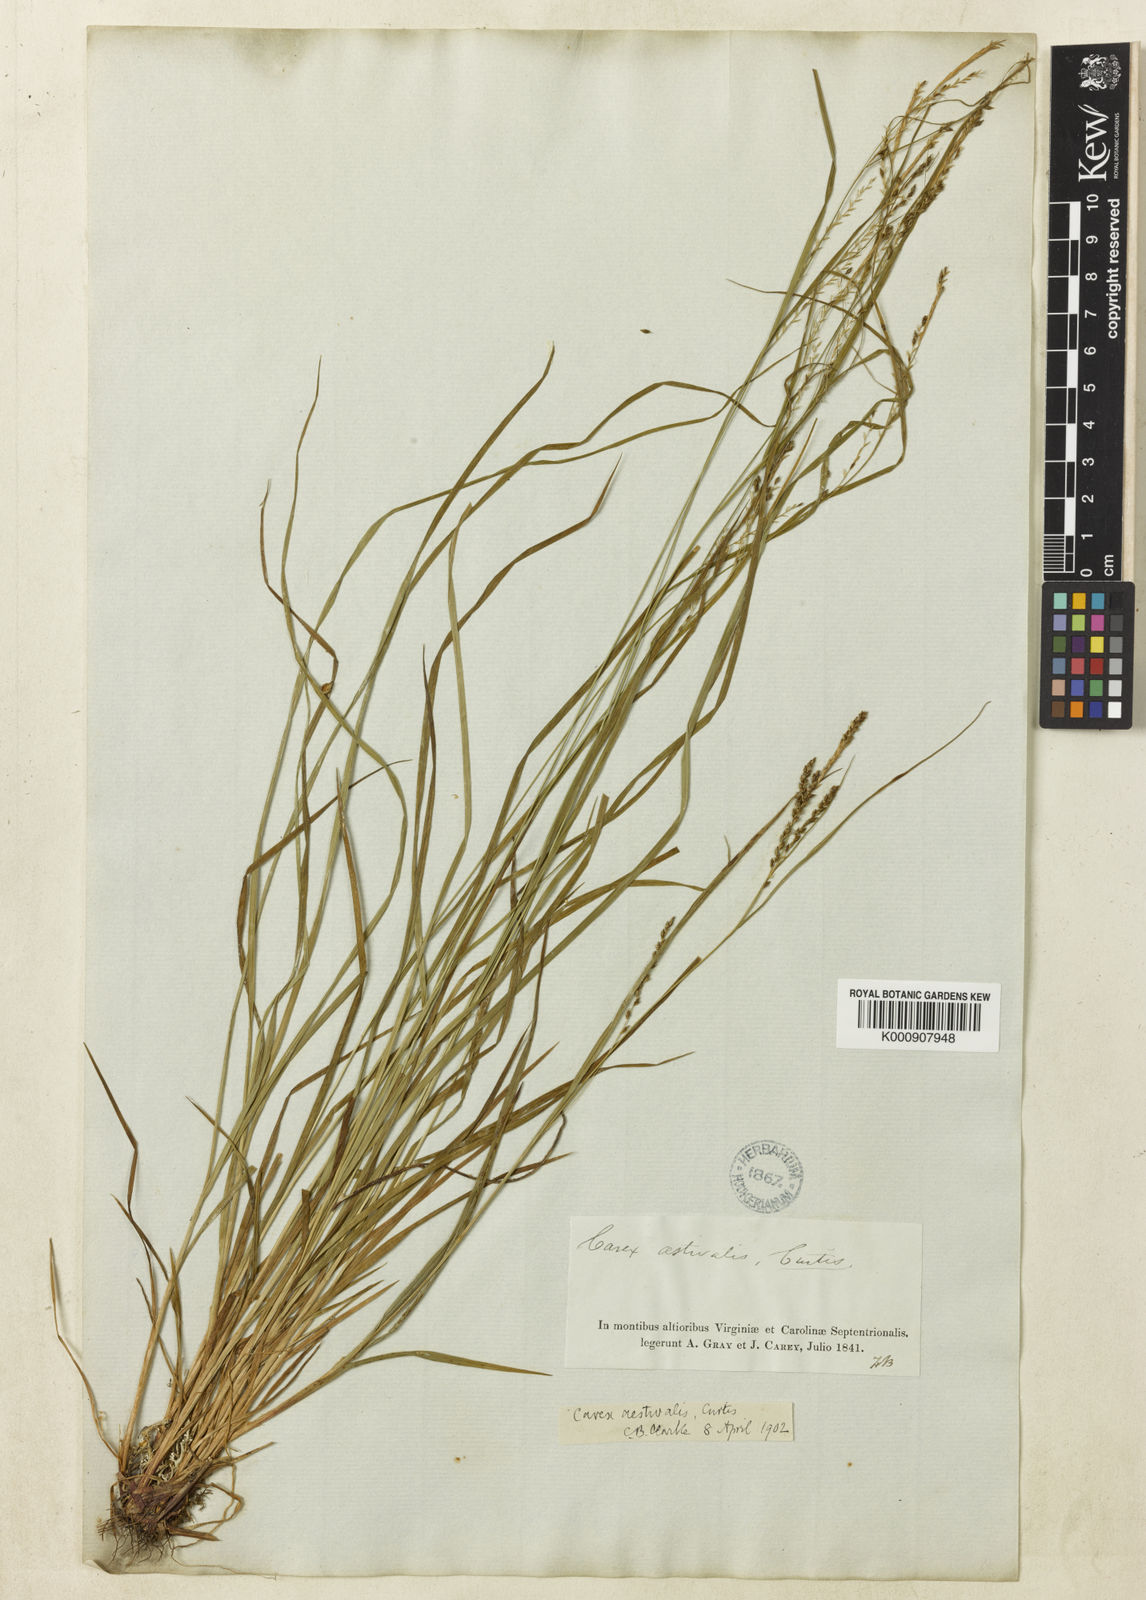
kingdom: Plantae
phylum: Tracheophyta
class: Liliopsida
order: Poales
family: Cyperaceae
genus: Carex
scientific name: Carex aestivalis
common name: Summer sedge
